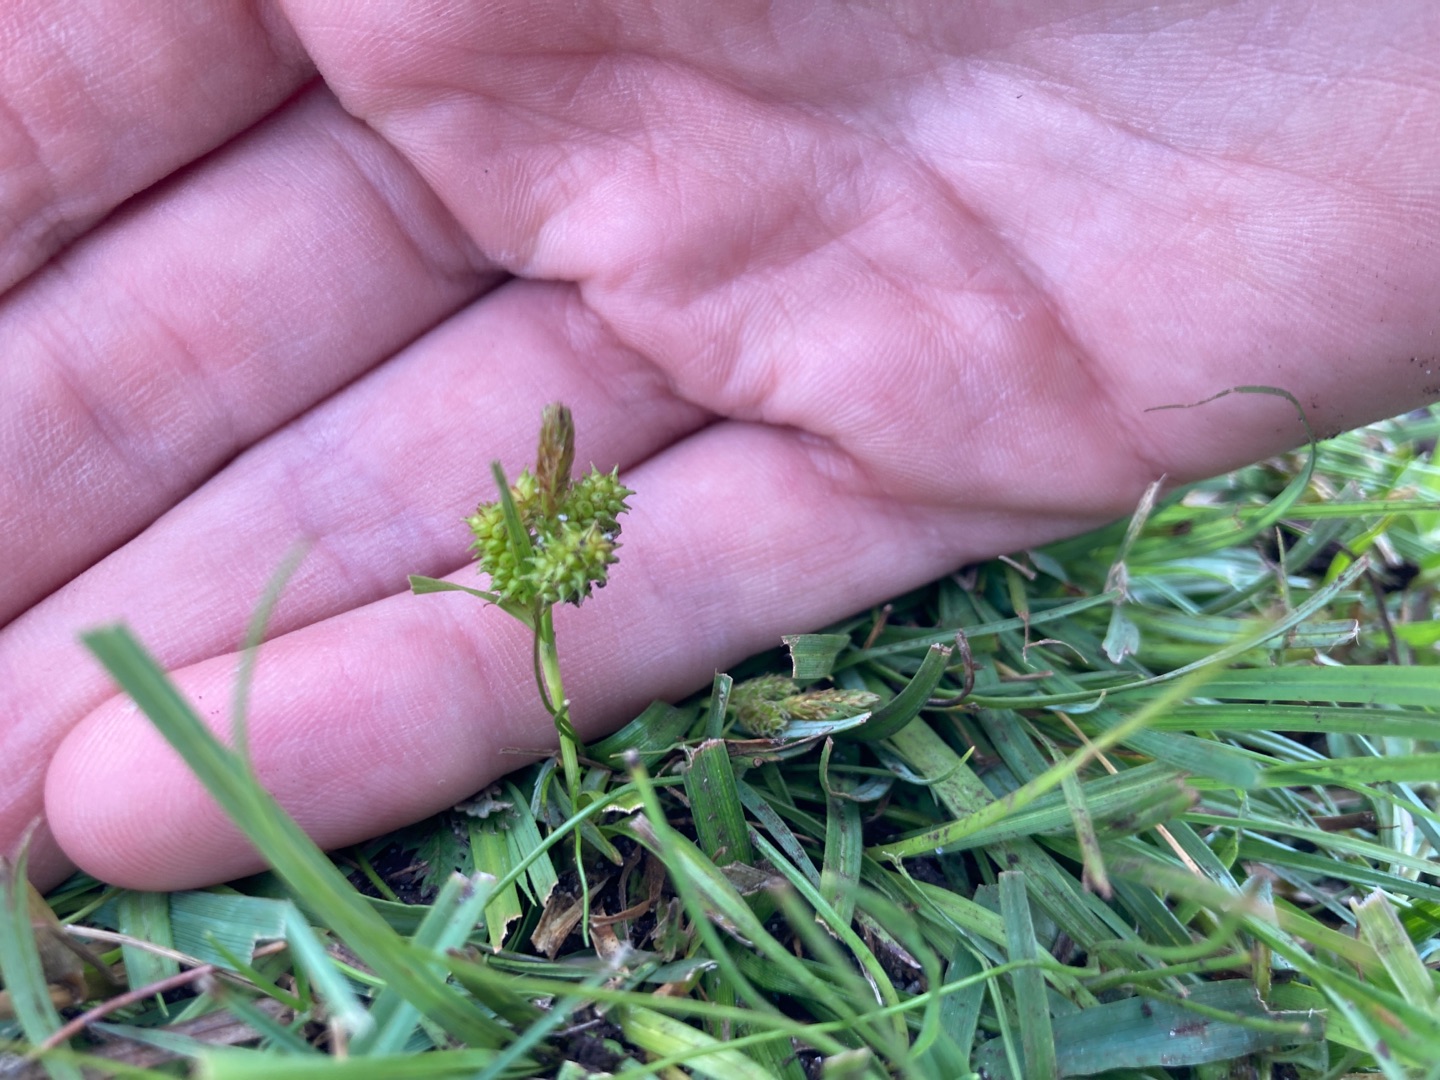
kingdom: Plantae
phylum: Tracheophyta
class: Liliopsida
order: Poales
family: Cyperaceae
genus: Carex
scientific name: Carex oederi
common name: Dværg-star
